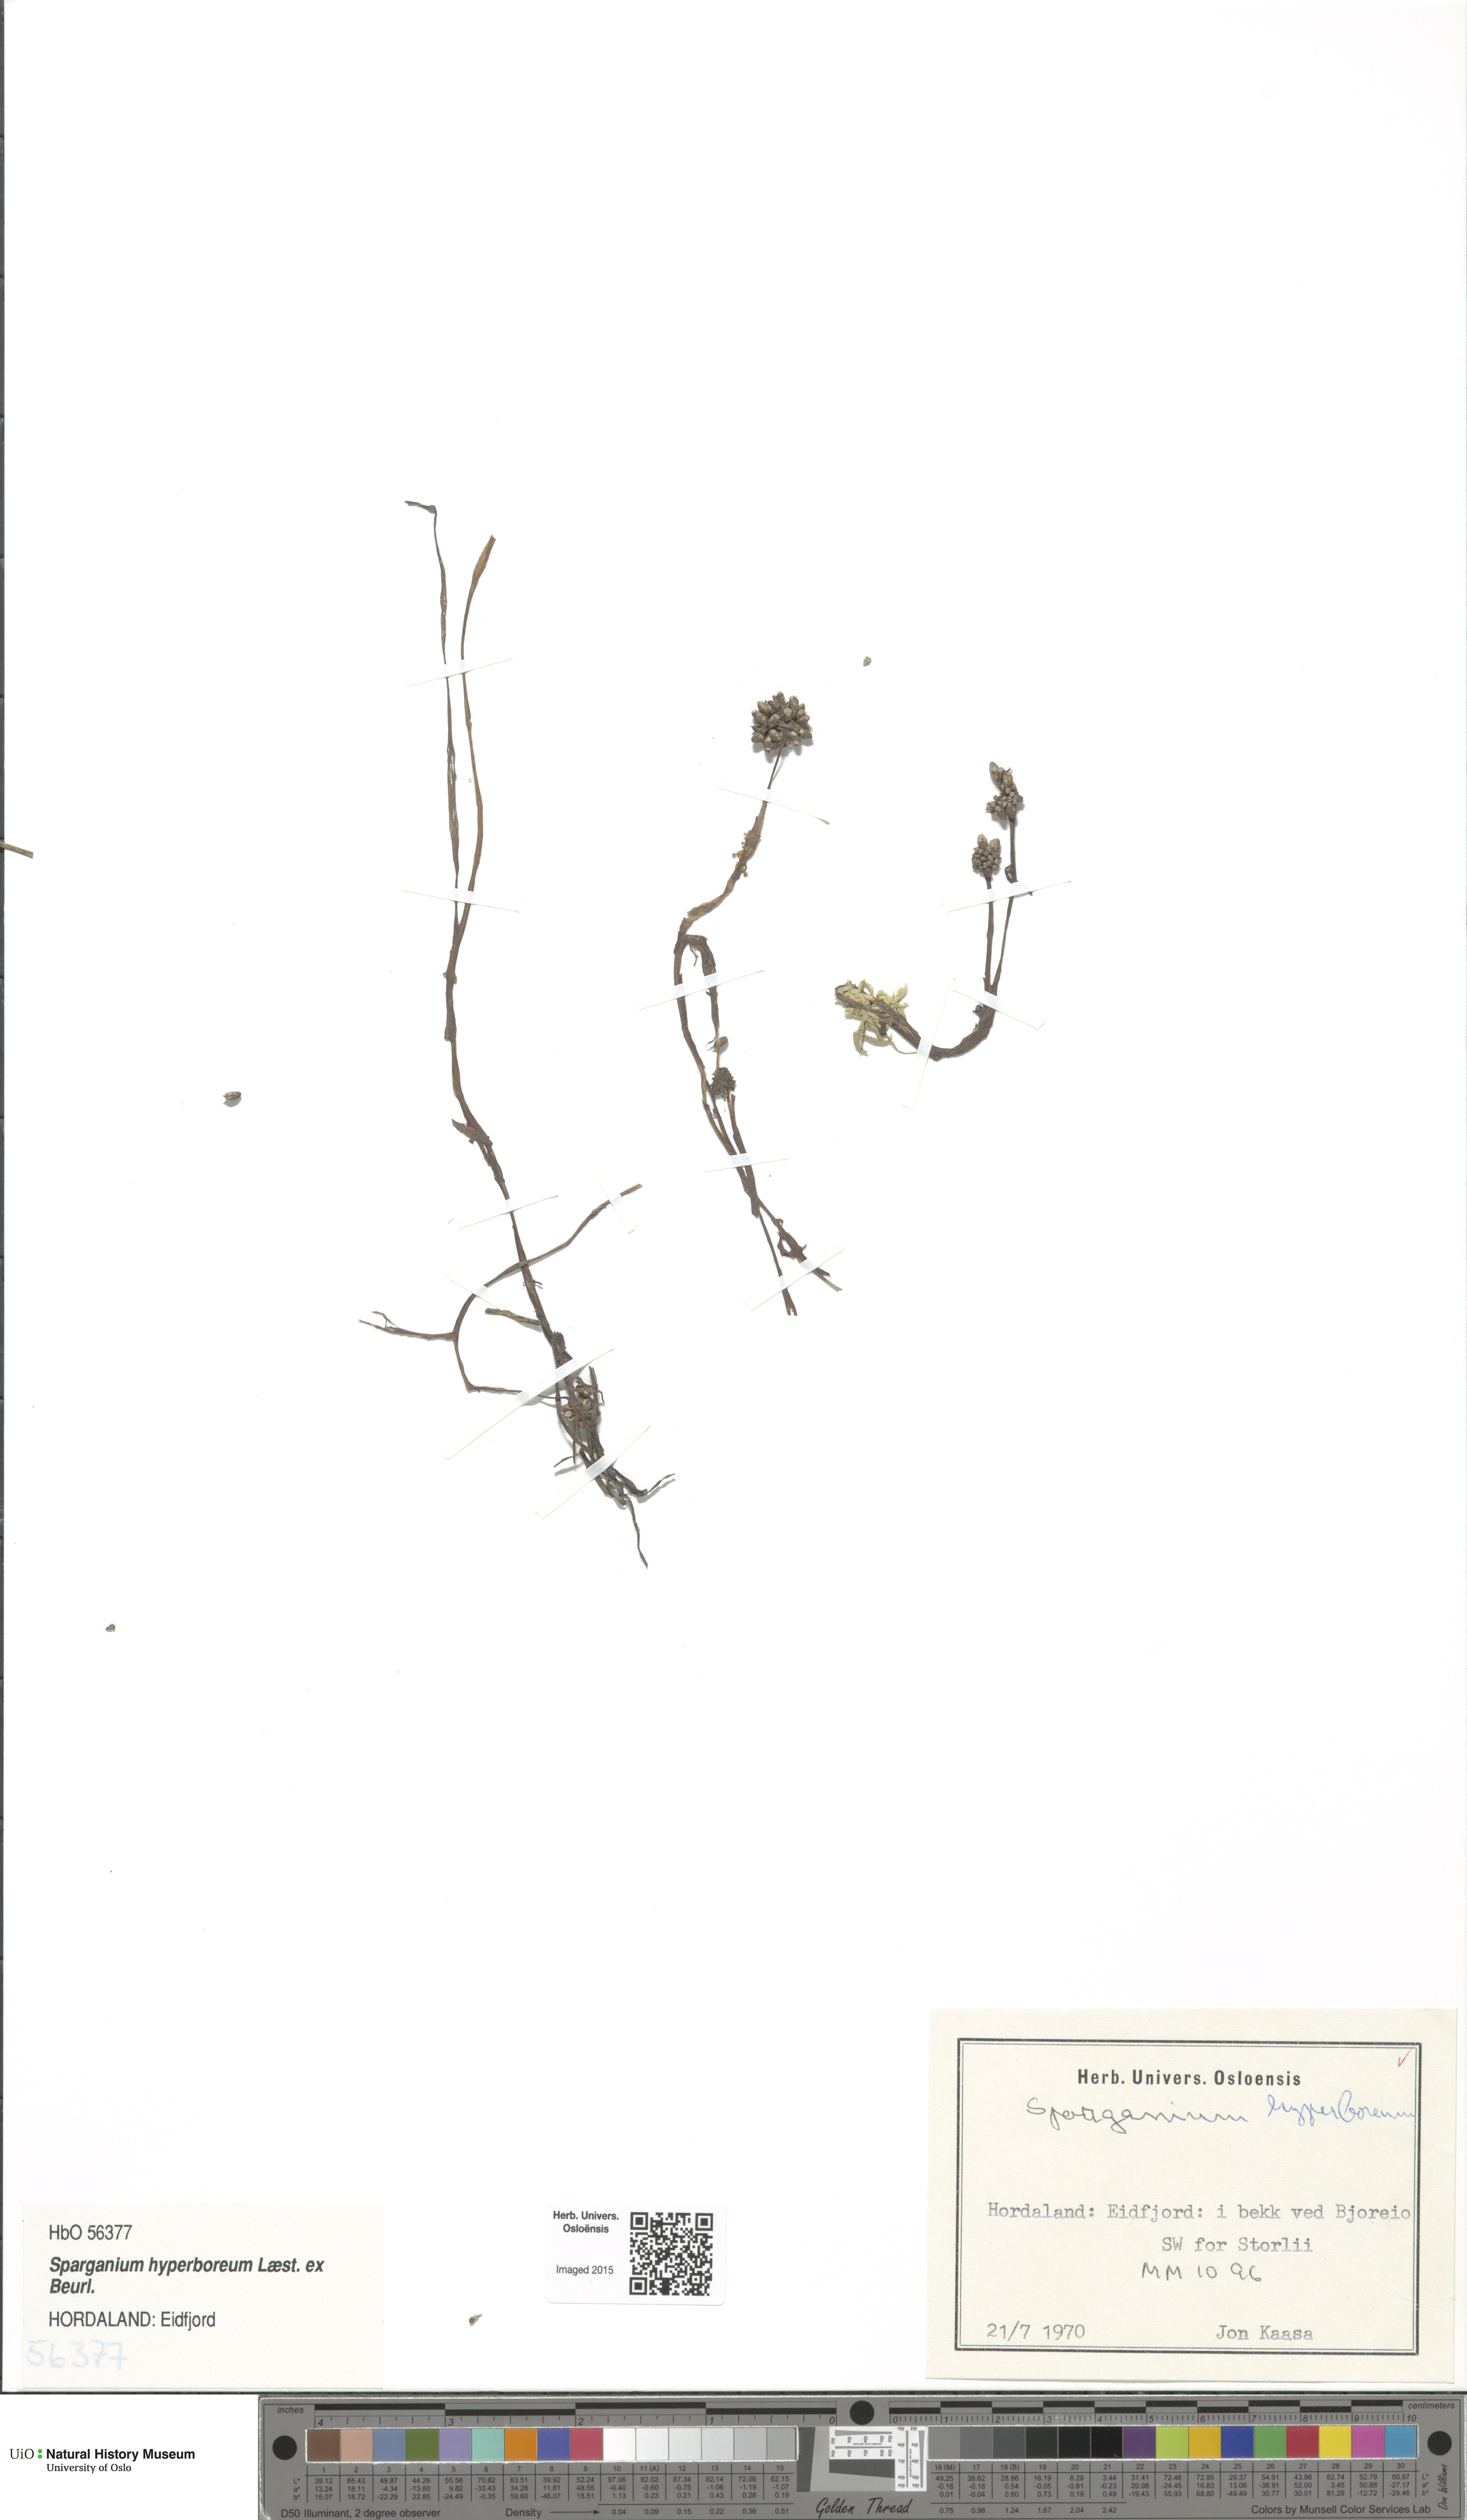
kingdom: Plantae
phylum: Tracheophyta
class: Liliopsida
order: Poales
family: Typhaceae
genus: Sparganium
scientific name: Sparganium hyperboreum
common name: Arctic burreed
